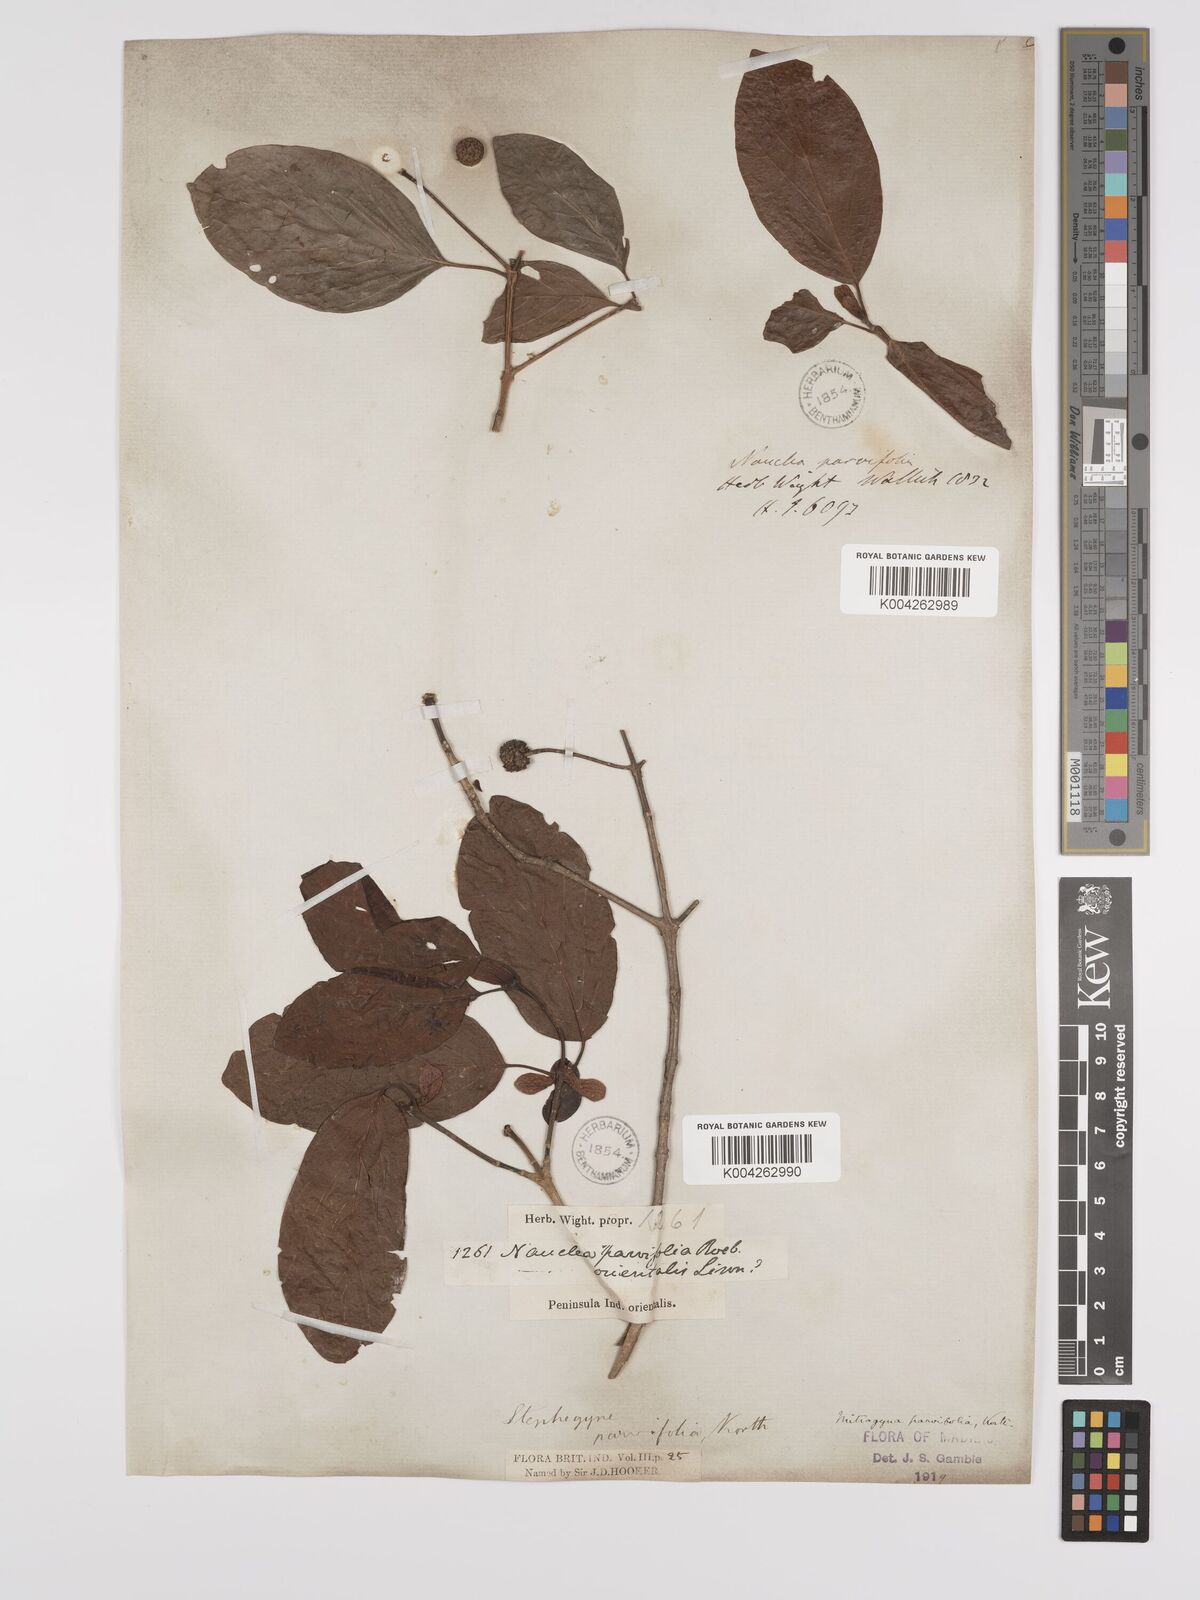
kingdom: Plantae
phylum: Tracheophyta
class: Magnoliopsida
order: Gentianales
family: Rubiaceae
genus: Mitragyna
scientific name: Mitragyna parvifolia
